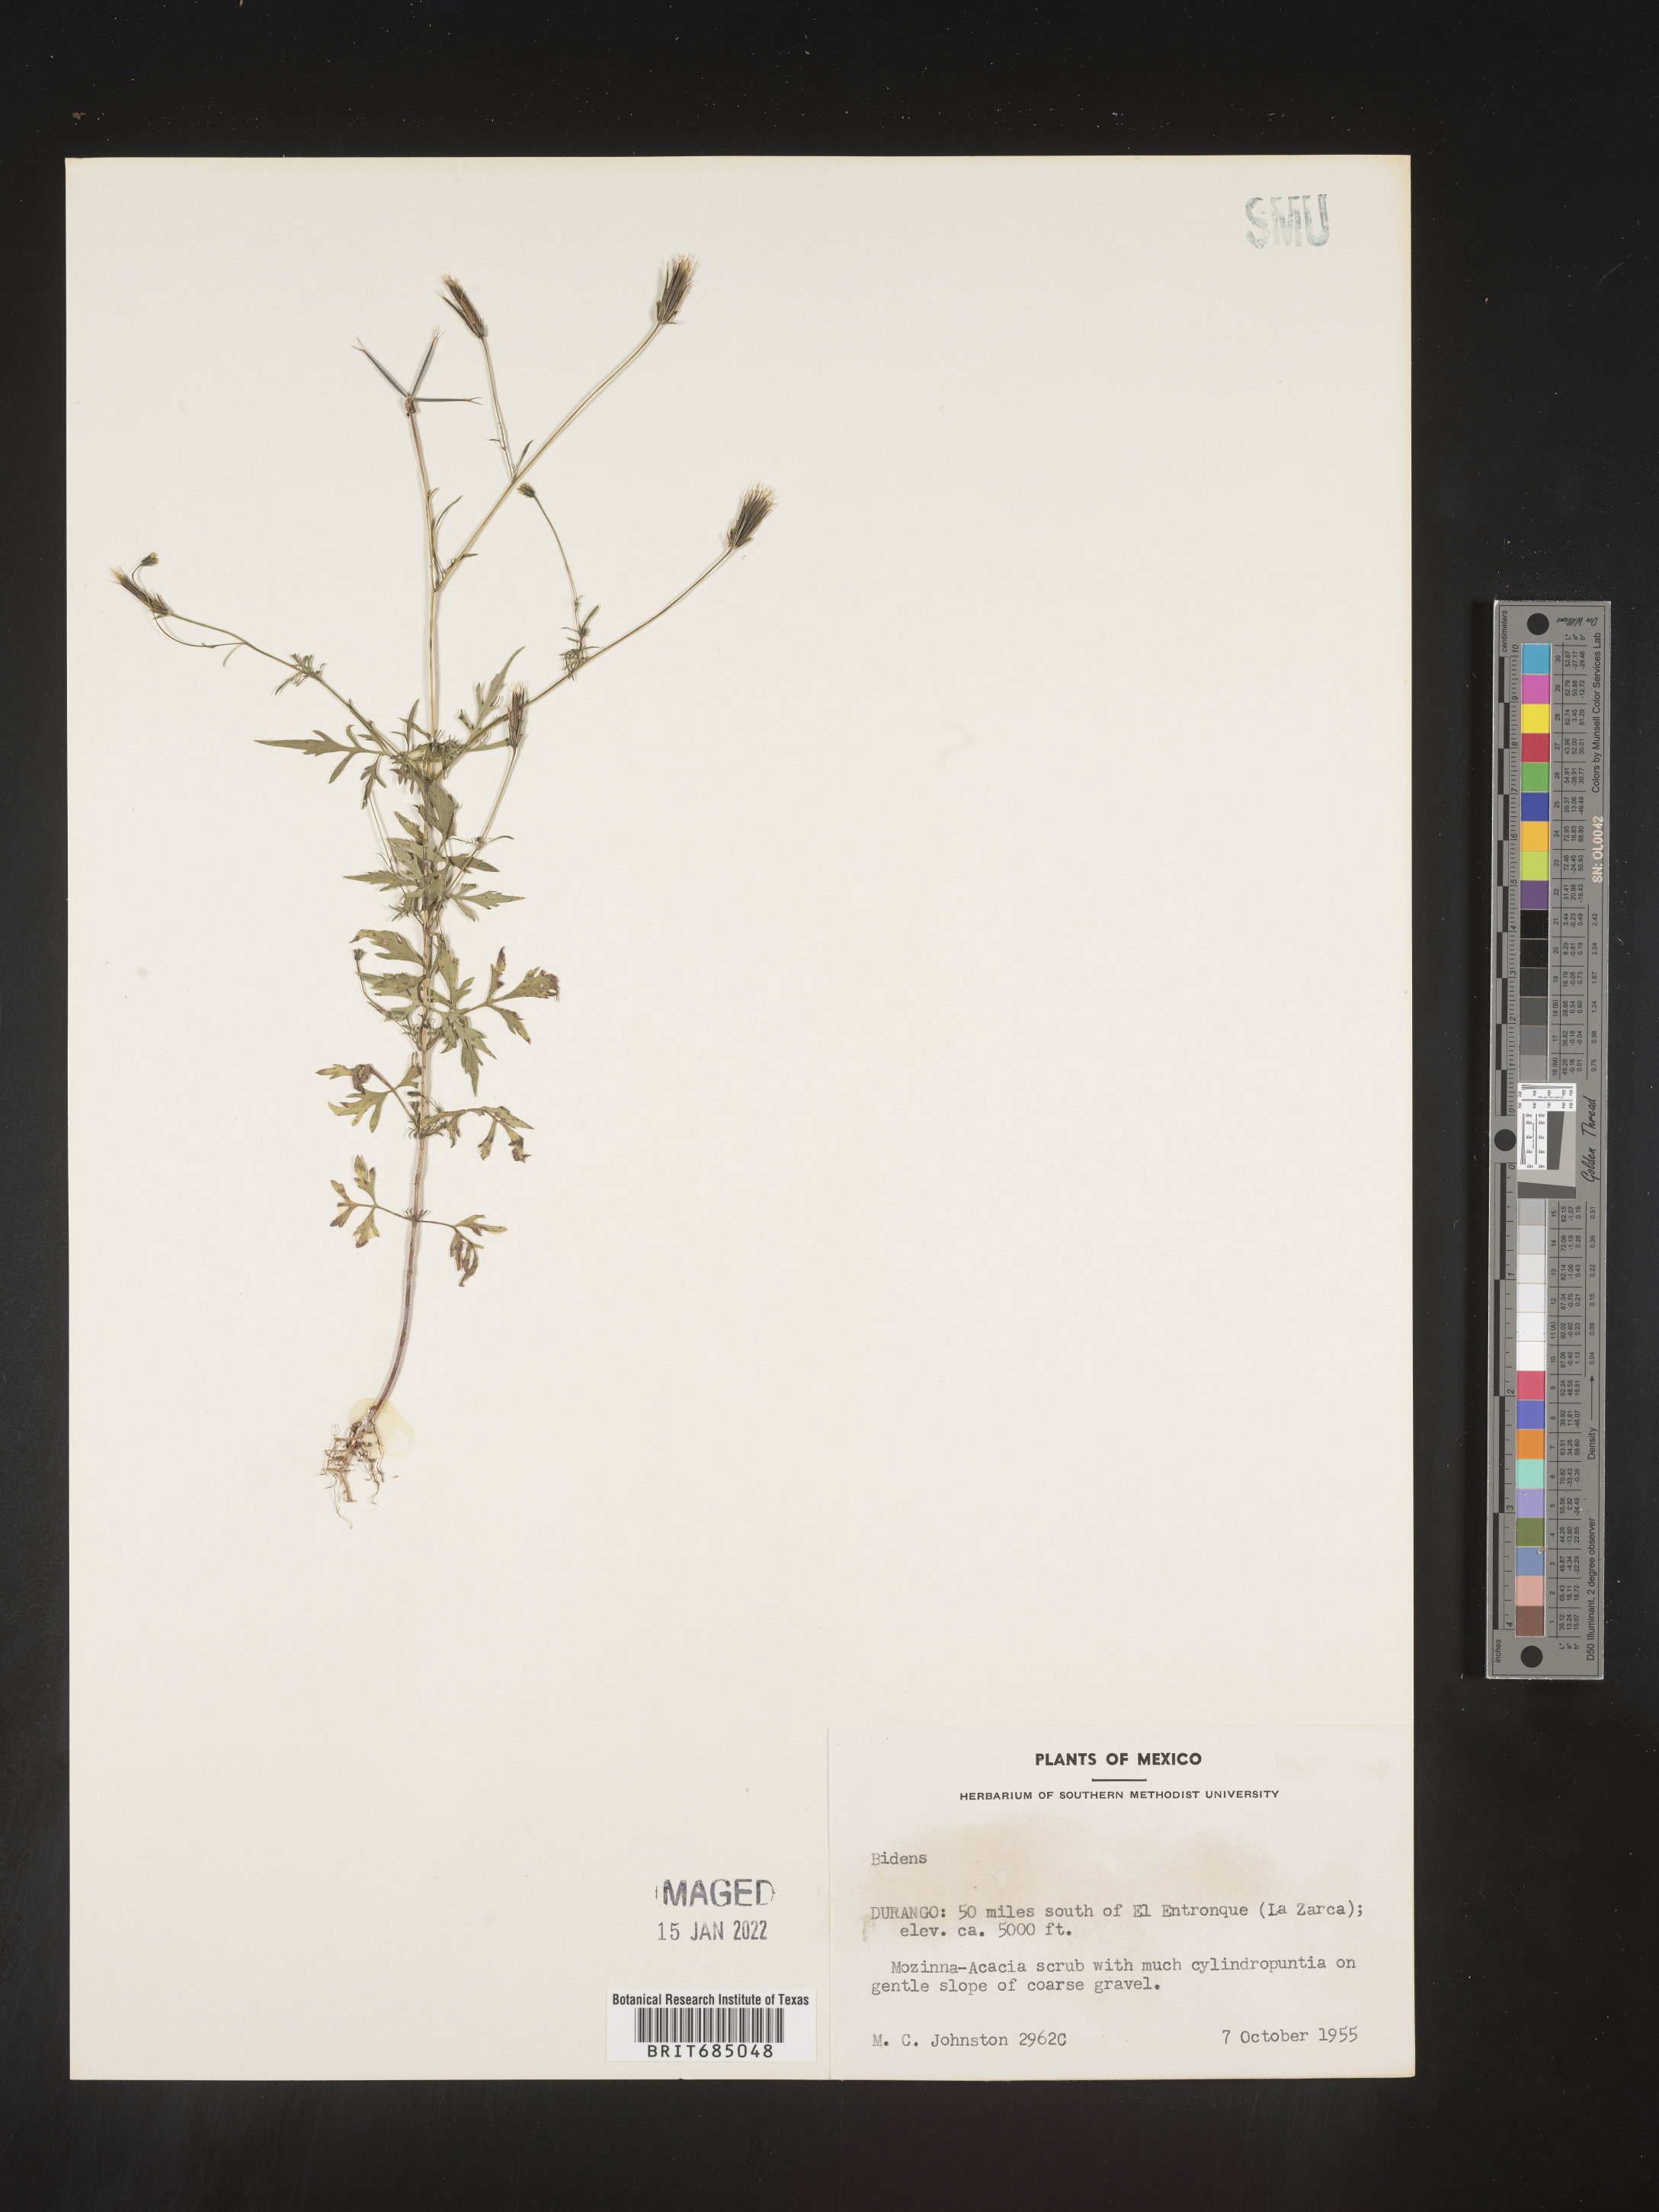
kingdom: Plantae
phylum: Tracheophyta
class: Magnoliopsida
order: Asterales
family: Asteraceae
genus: Bidens
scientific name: Bidens
